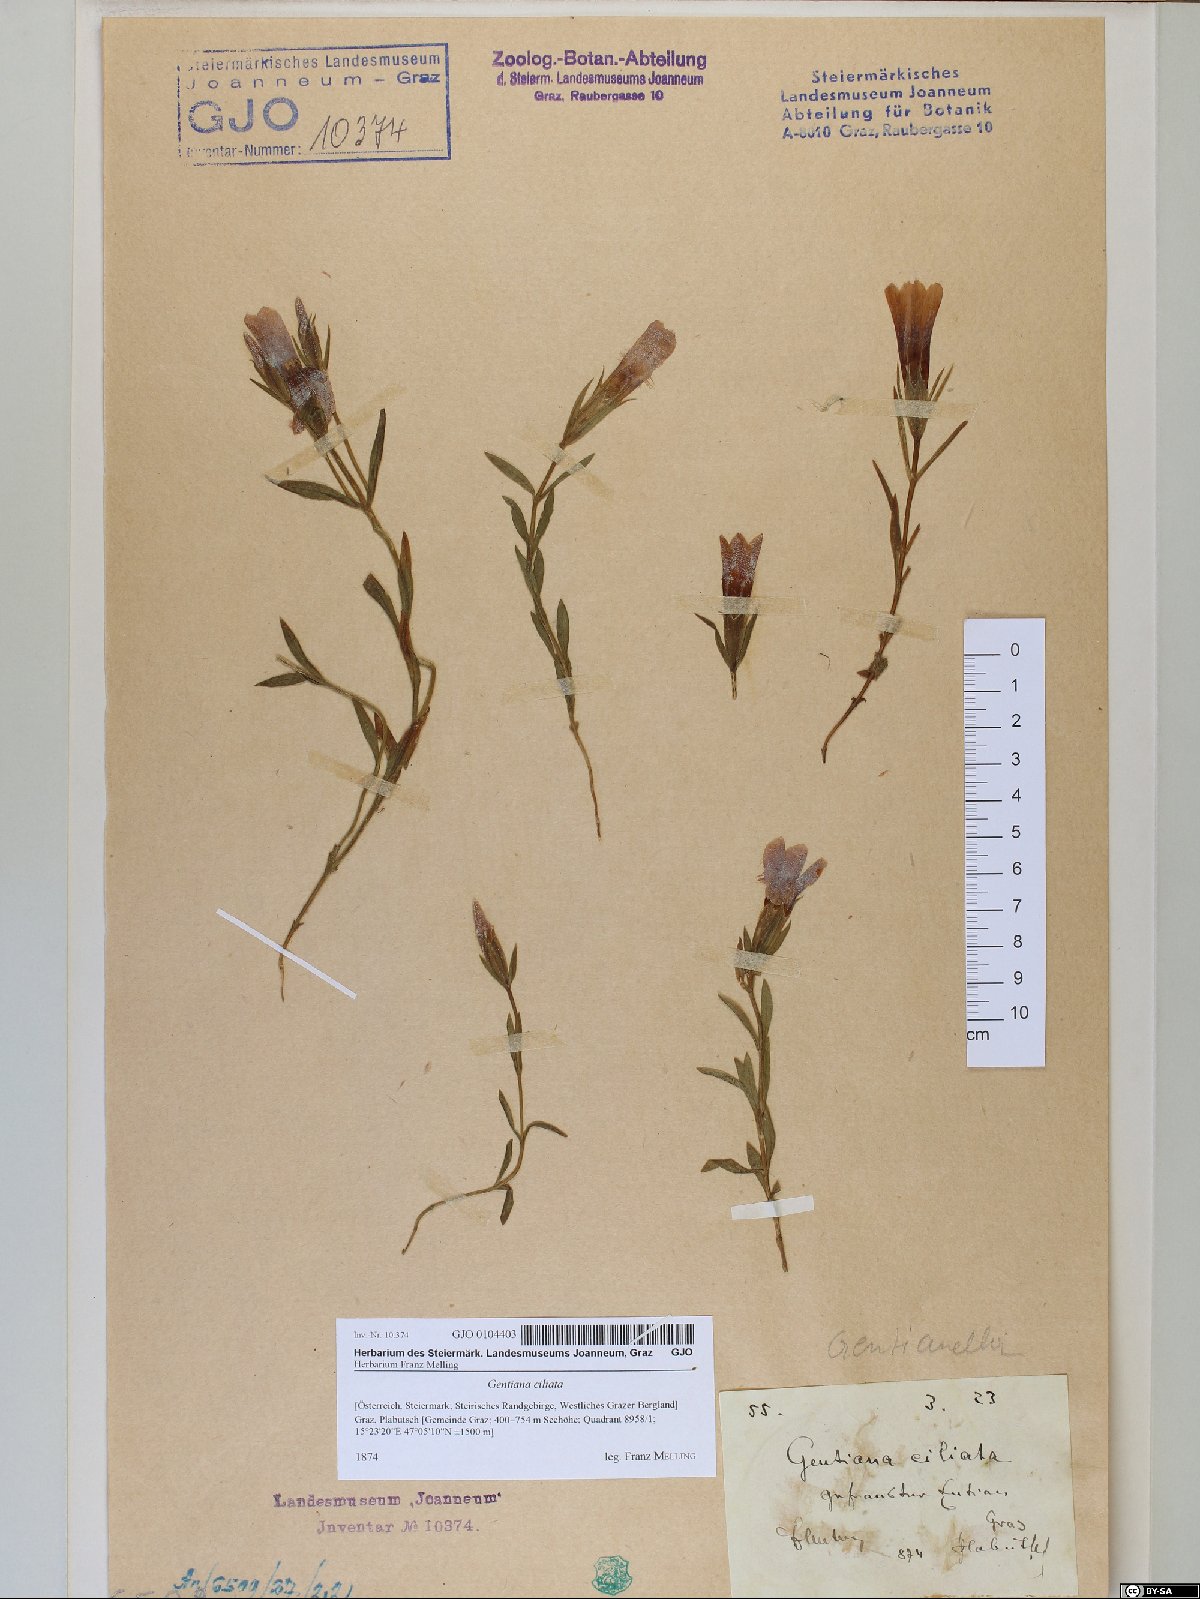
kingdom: Plantae
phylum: Tracheophyta
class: Magnoliopsida
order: Gentianales
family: Gentianaceae
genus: Gentianopsis
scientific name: Gentianopsis ciliata
